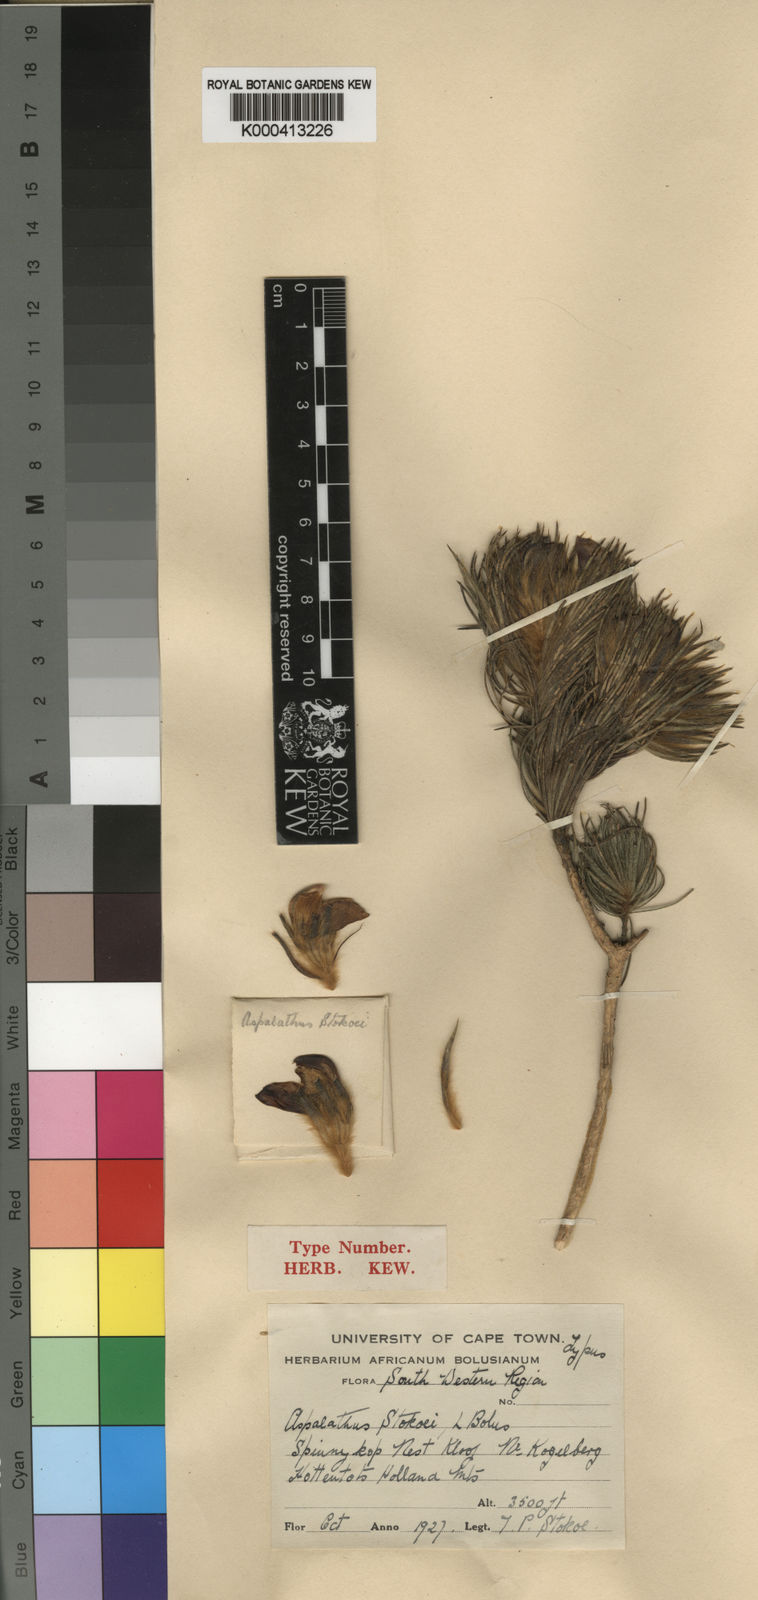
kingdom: Plantae
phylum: Tracheophyta
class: Magnoliopsida
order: Fabales
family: Fabaceae
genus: Aspalathus
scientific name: Aspalathus stokoei
